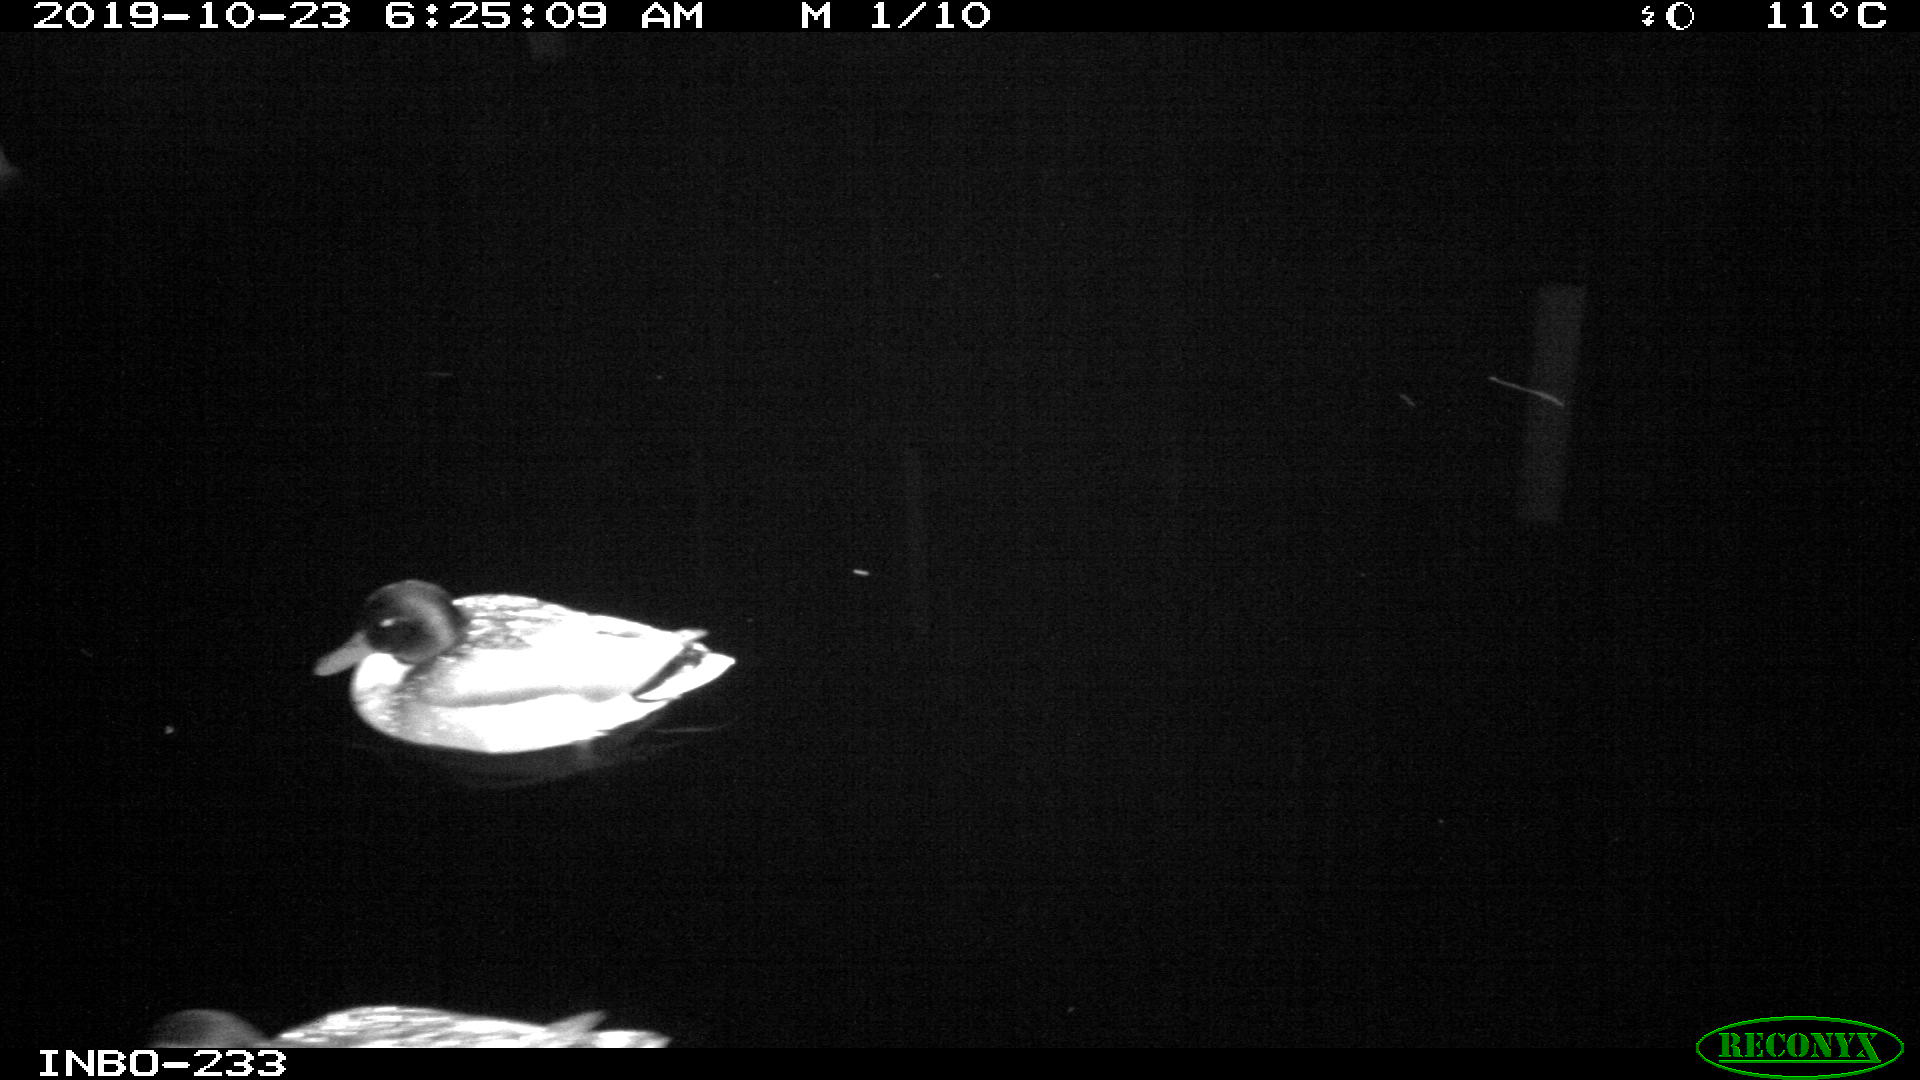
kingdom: Animalia
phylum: Chordata
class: Aves
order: Anseriformes
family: Anatidae
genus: Anas
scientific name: Anas platyrhynchos
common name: Mallard
